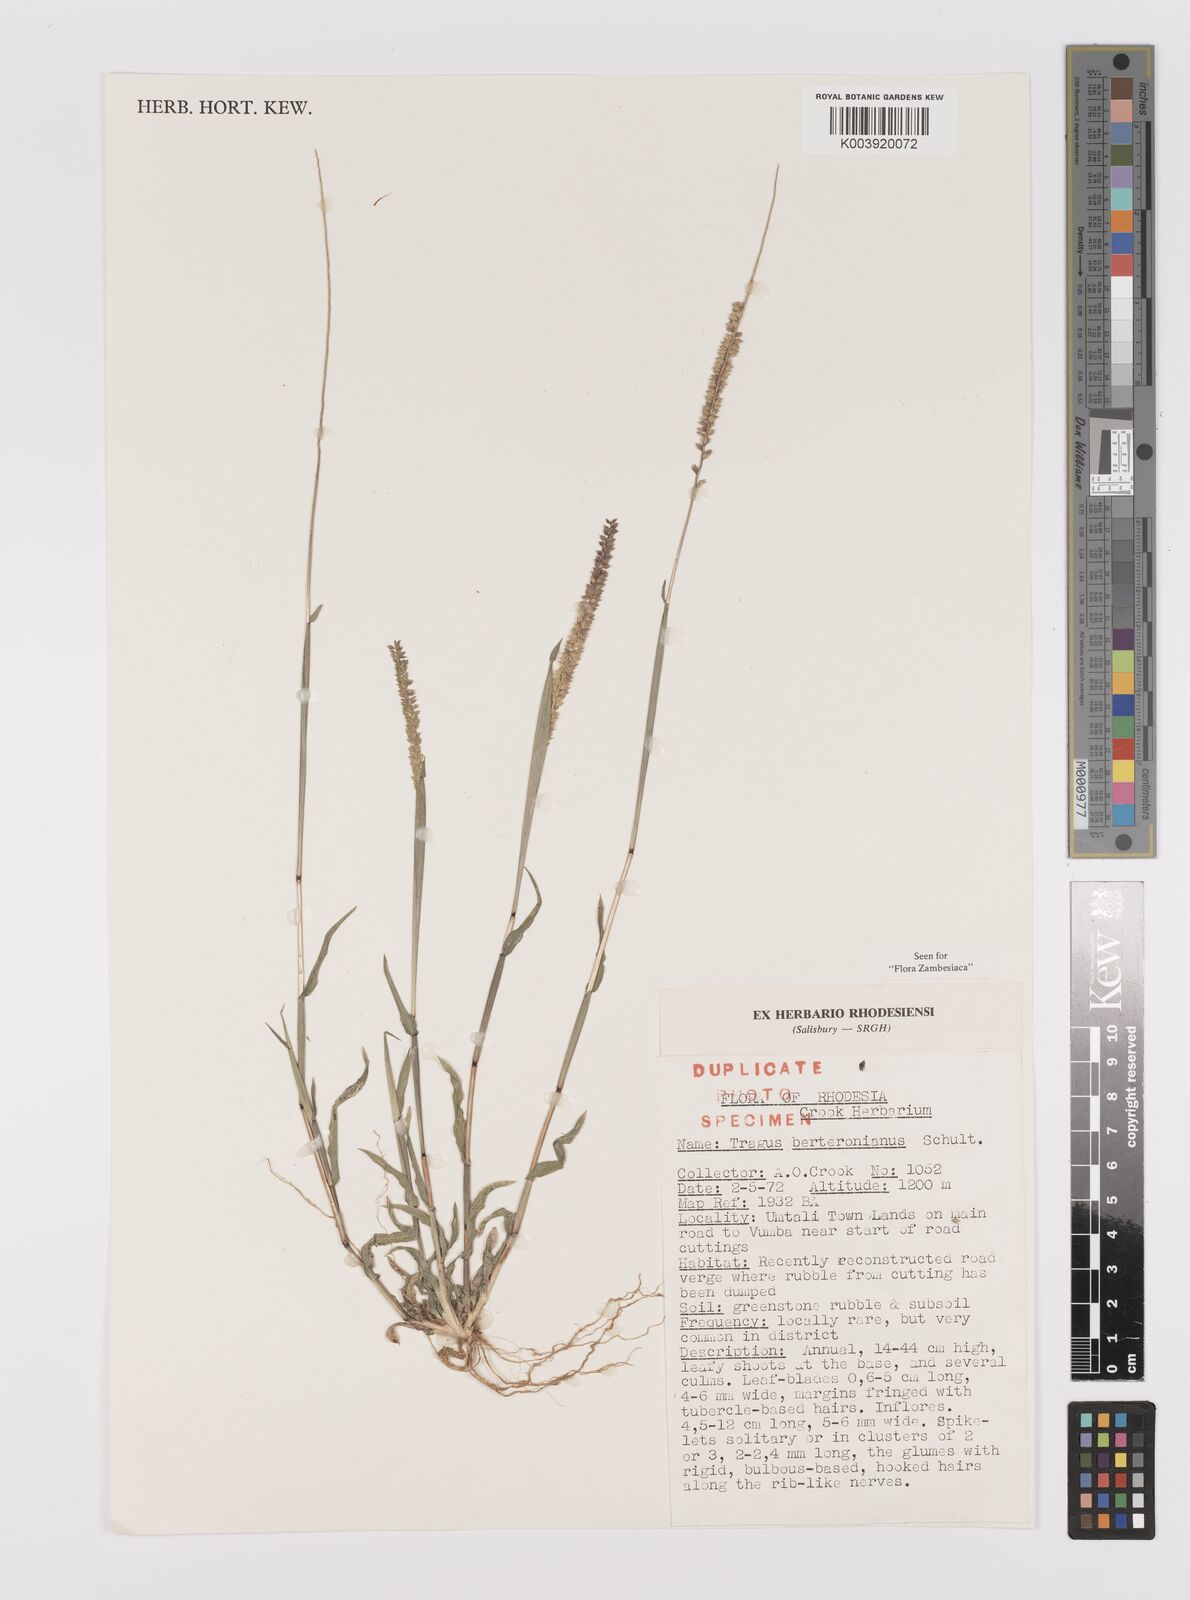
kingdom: Plantae
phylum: Tracheophyta
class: Liliopsida
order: Poales
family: Poaceae
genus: Tragus
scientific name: Tragus berteronianus
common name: African bur-grass
